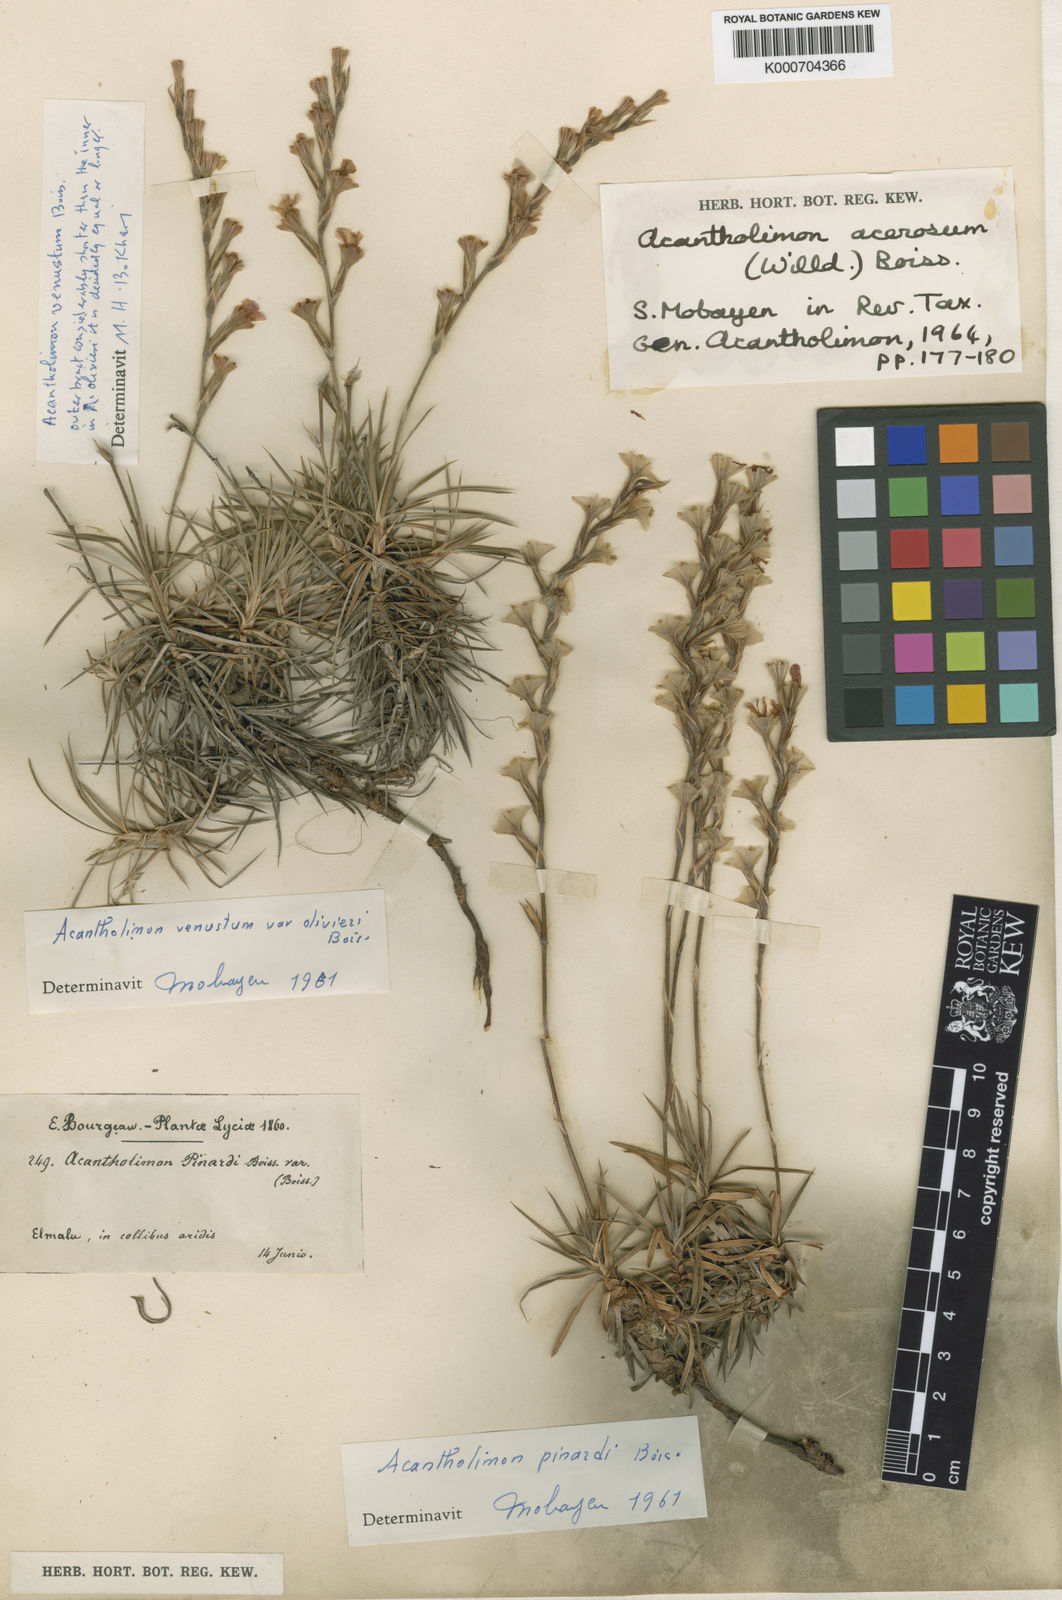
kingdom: Plantae
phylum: Tracheophyta
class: Magnoliopsida
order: Caryophyllales
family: Plumbaginaceae
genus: Acantholimon
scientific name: Acantholimon acerosum
